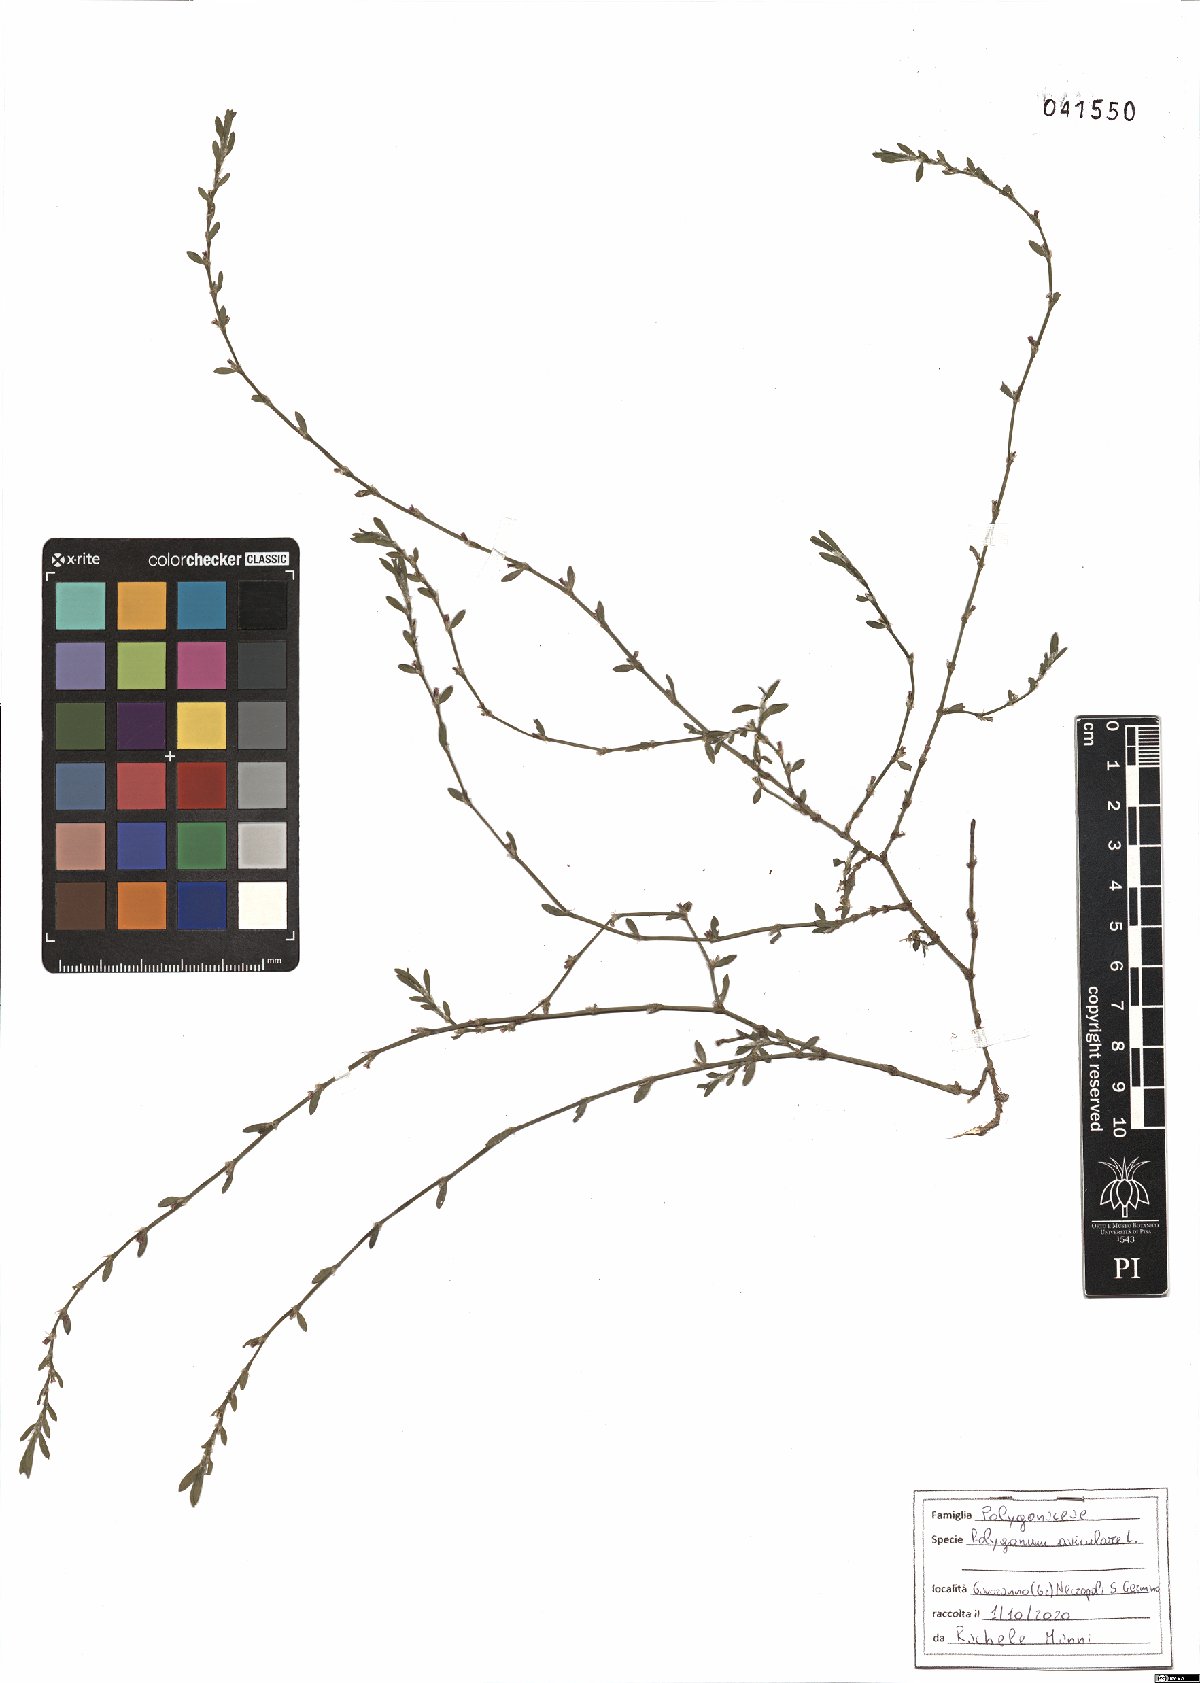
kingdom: Plantae
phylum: Tracheophyta
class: Magnoliopsida
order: Caryophyllales
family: Polygonaceae
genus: Polygonum
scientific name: Polygonum aviculare
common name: Prostrate knotweed
